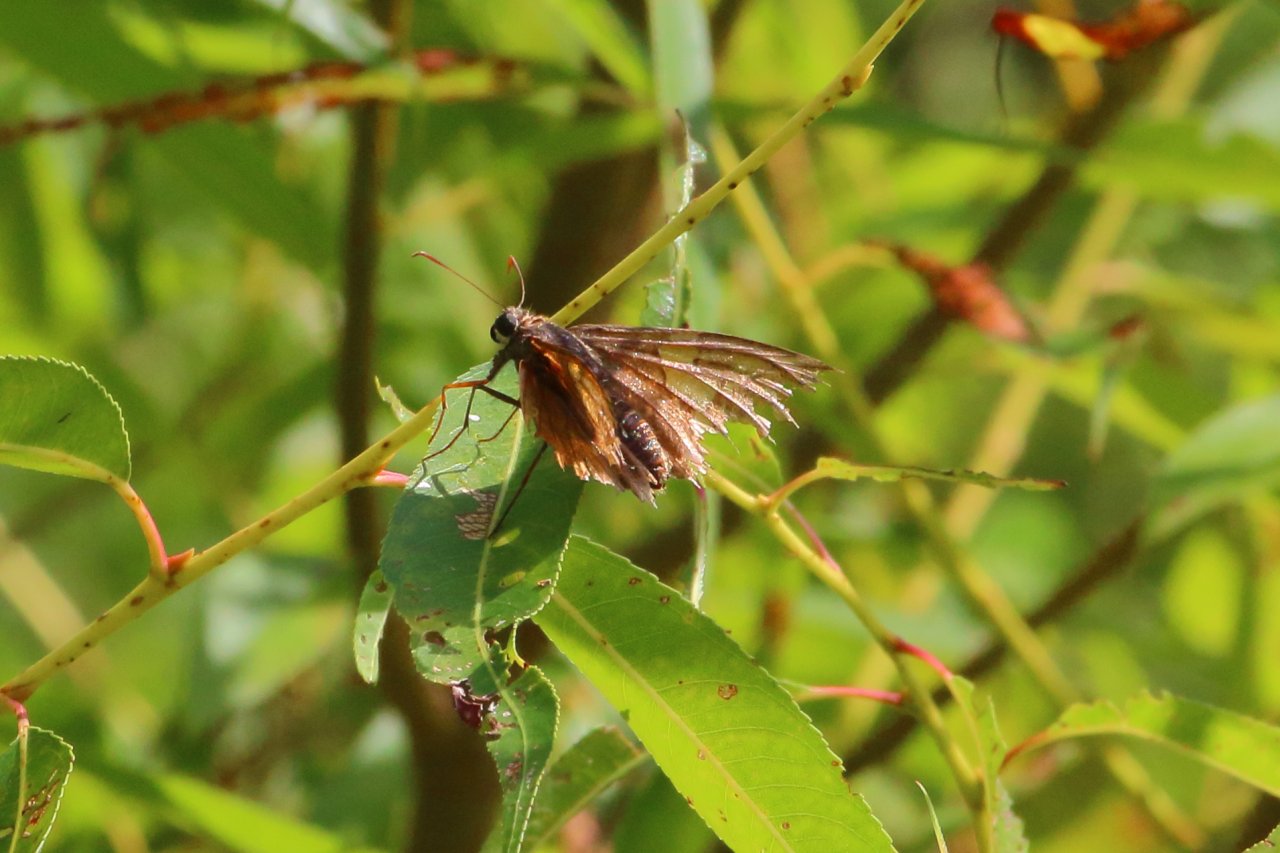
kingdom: Animalia
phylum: Arthropoda
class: Insecta
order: Lepidoptera
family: Hesperiidae
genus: Epargyreus
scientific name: Epargyreus clarus
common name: Silver-spotted Skipper
